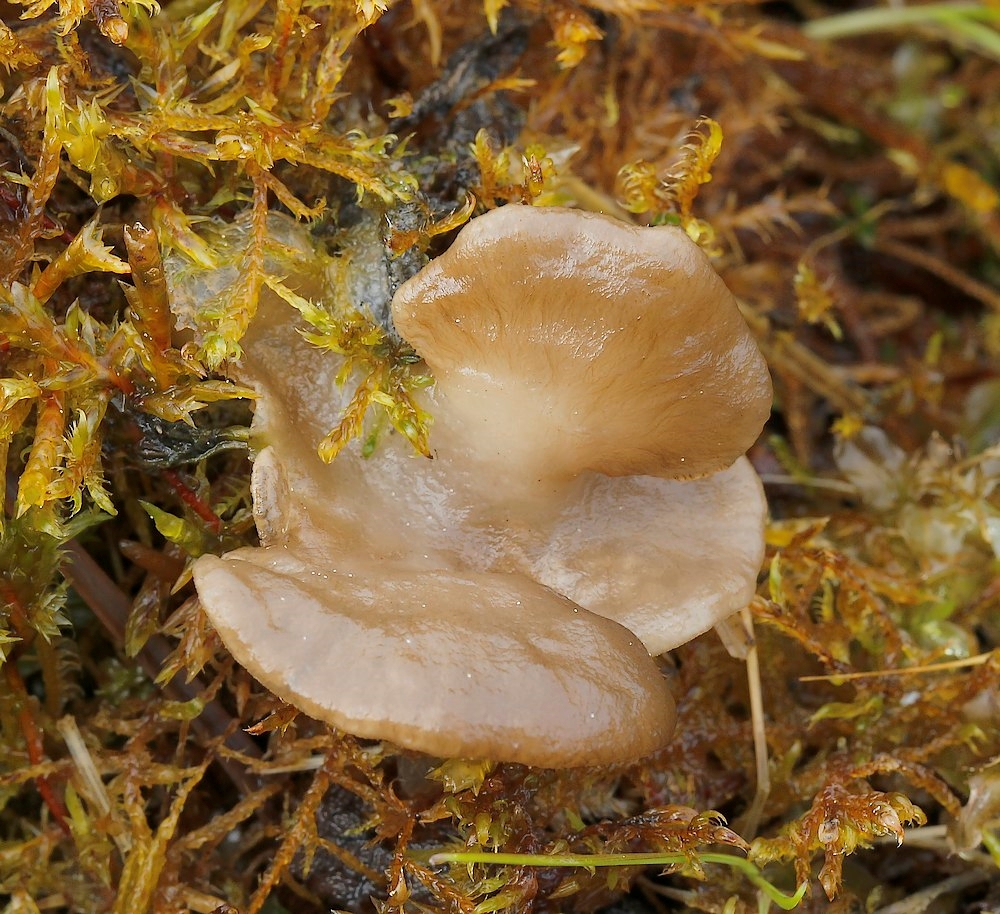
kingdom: Fungi
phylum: Basidiomycota
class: Agaricomycetes
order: Agaricales
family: Hygrophoraceae
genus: Arrhenia
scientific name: Arrhenia lobata
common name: siddende fontænehat
